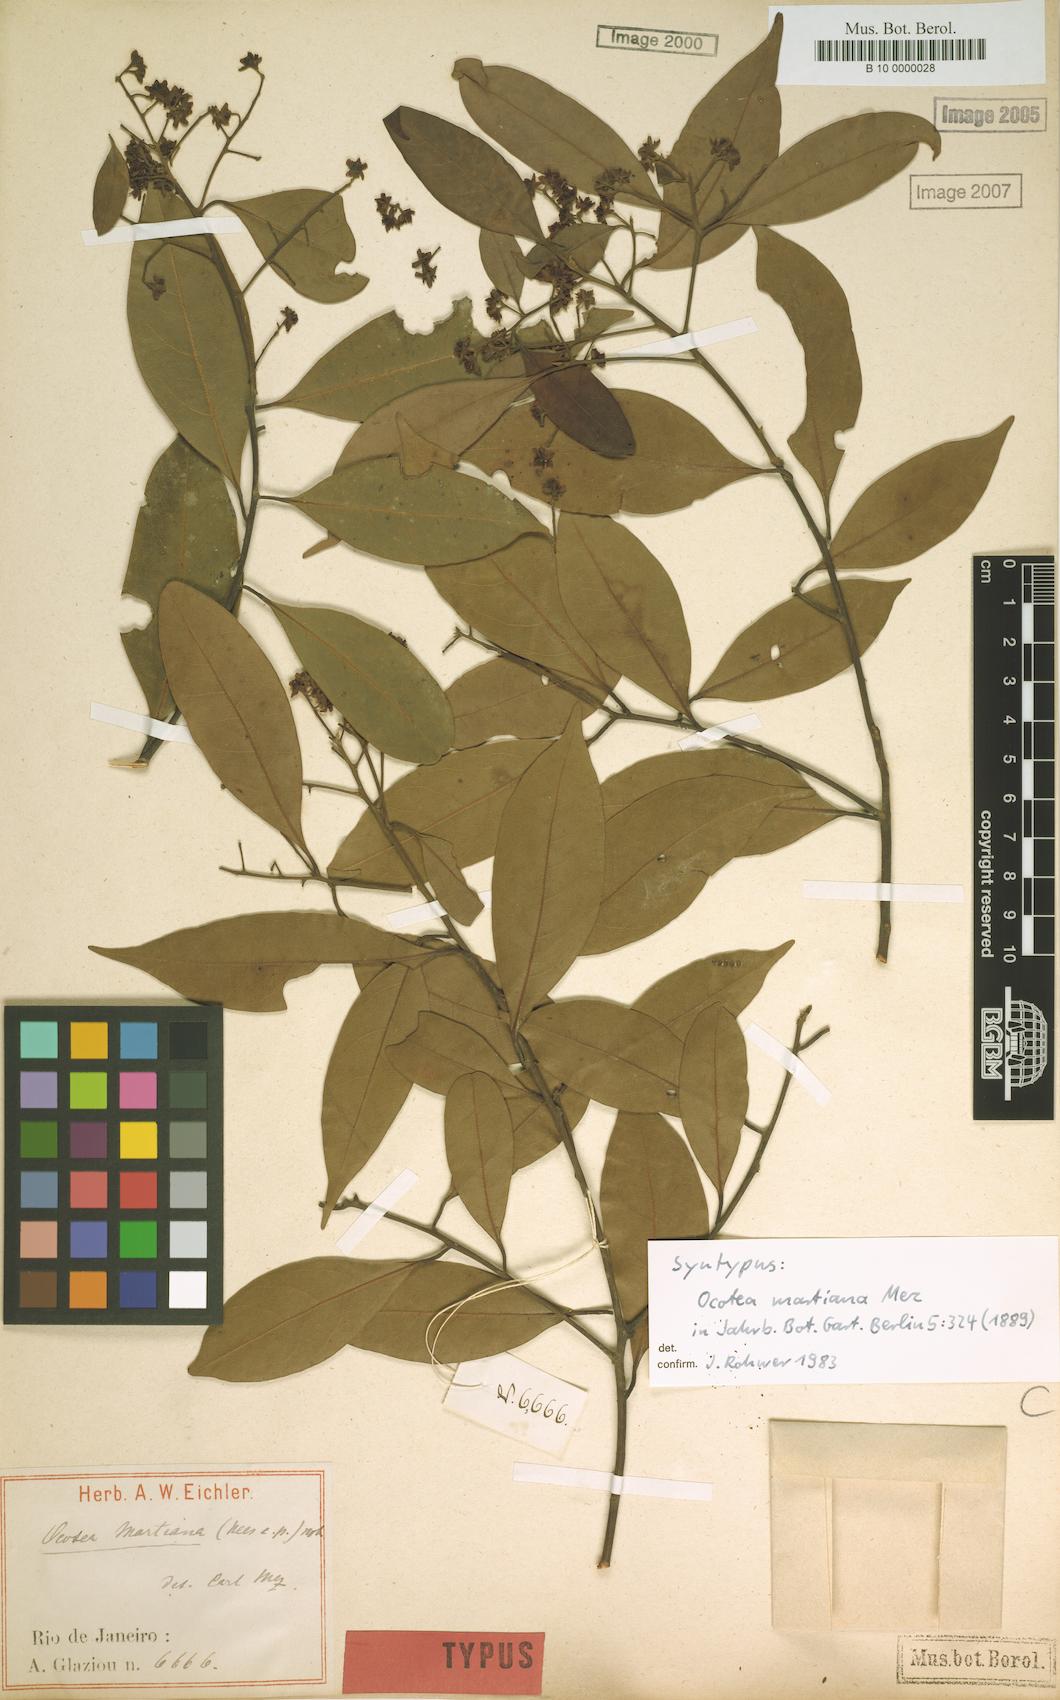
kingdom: Plantae
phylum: Tracheophyta
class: Magnoliopsida
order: Laurales
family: Lauraceae
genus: Ocotea
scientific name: Ocotea lancifolia
